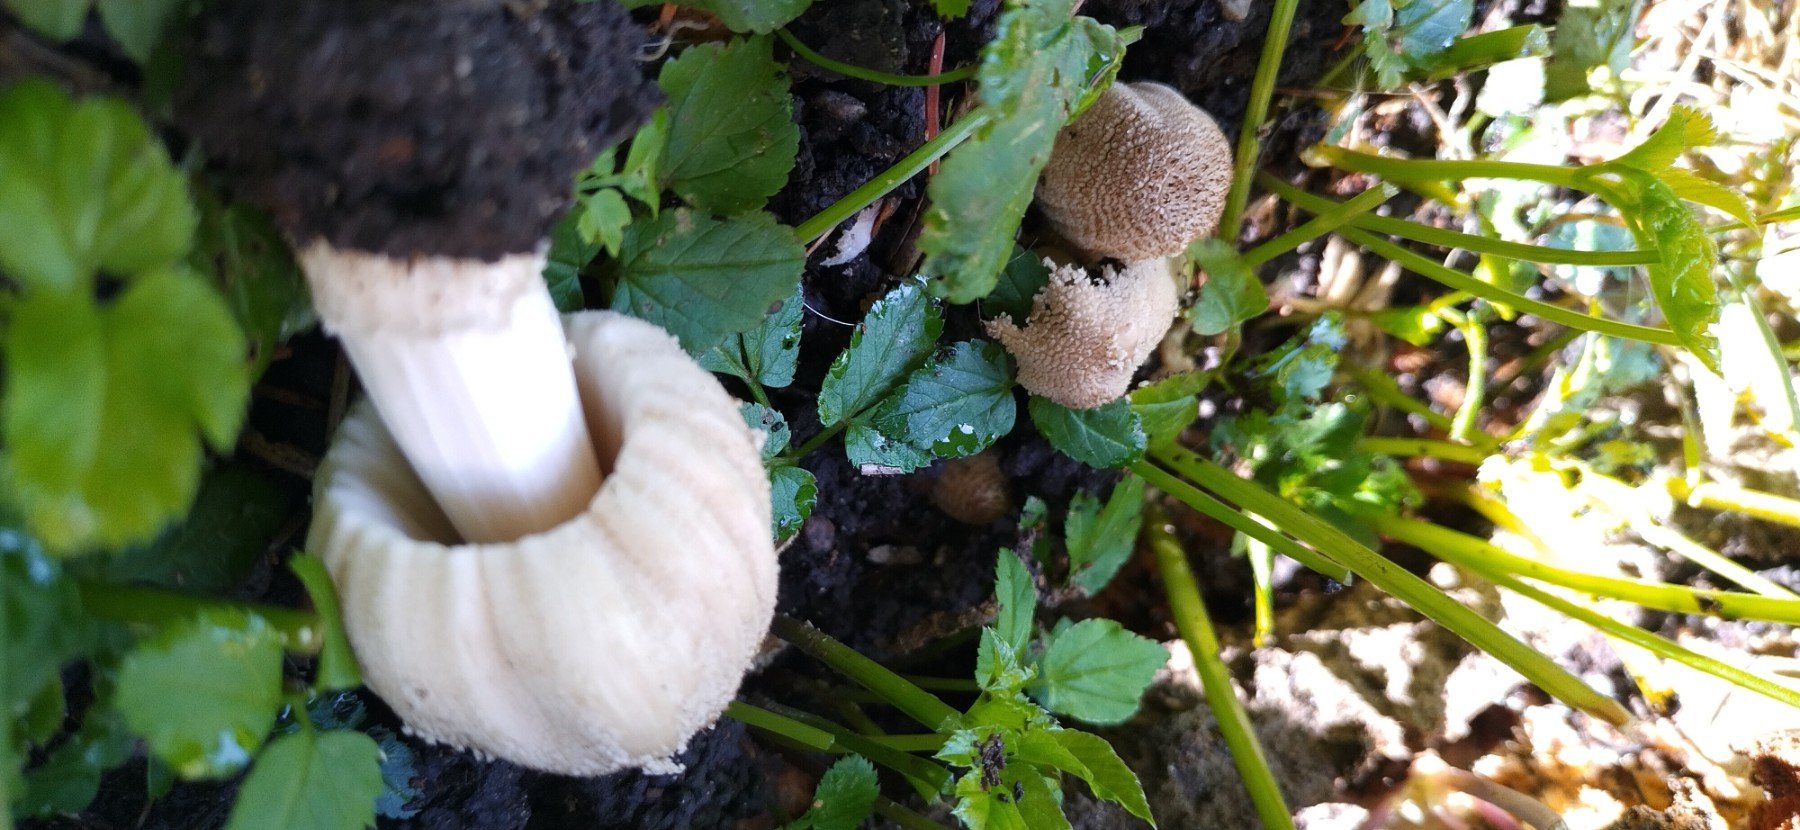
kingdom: Fungi
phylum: Basidiomycota
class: Agaricomycetes
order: Agaricales
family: Psathyrellaceae
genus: Coprinellus
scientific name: Coprinellus
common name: blækhat
